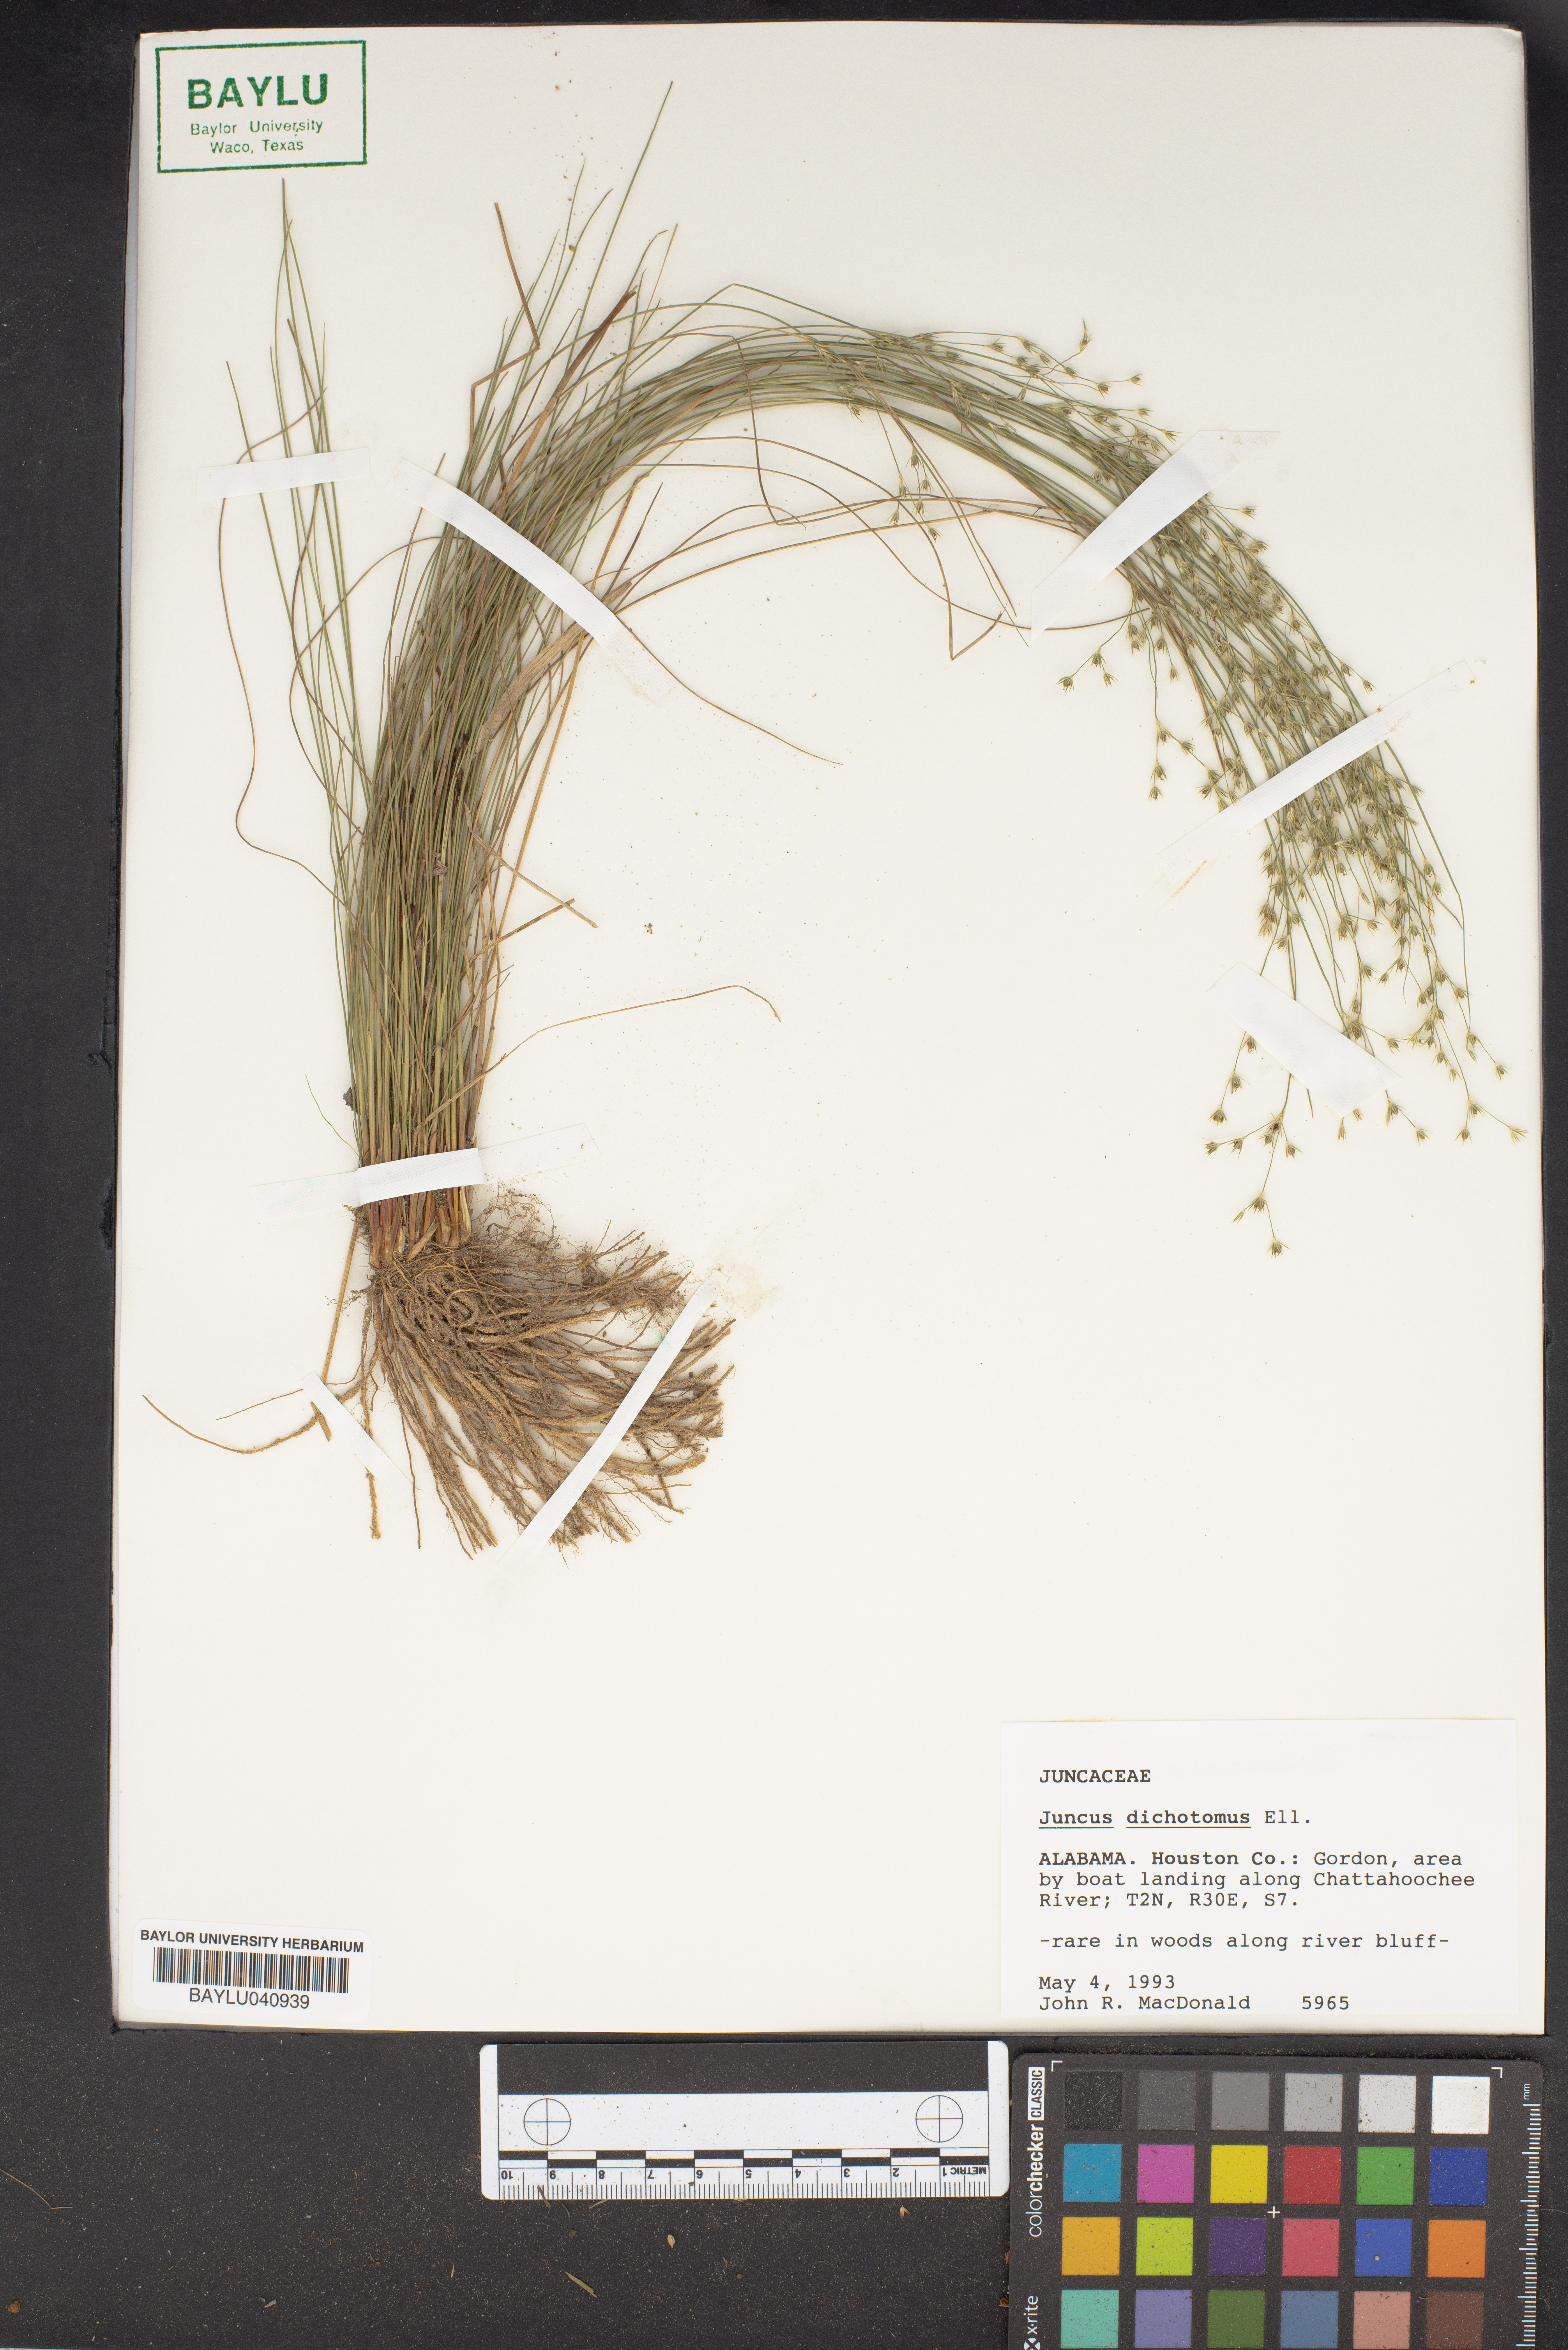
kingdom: Plantae
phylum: Tracheophyta
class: Liliopsida
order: Poales
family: Juncaceae
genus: Juncus
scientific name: Juncus dichotomus
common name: Forked rush
